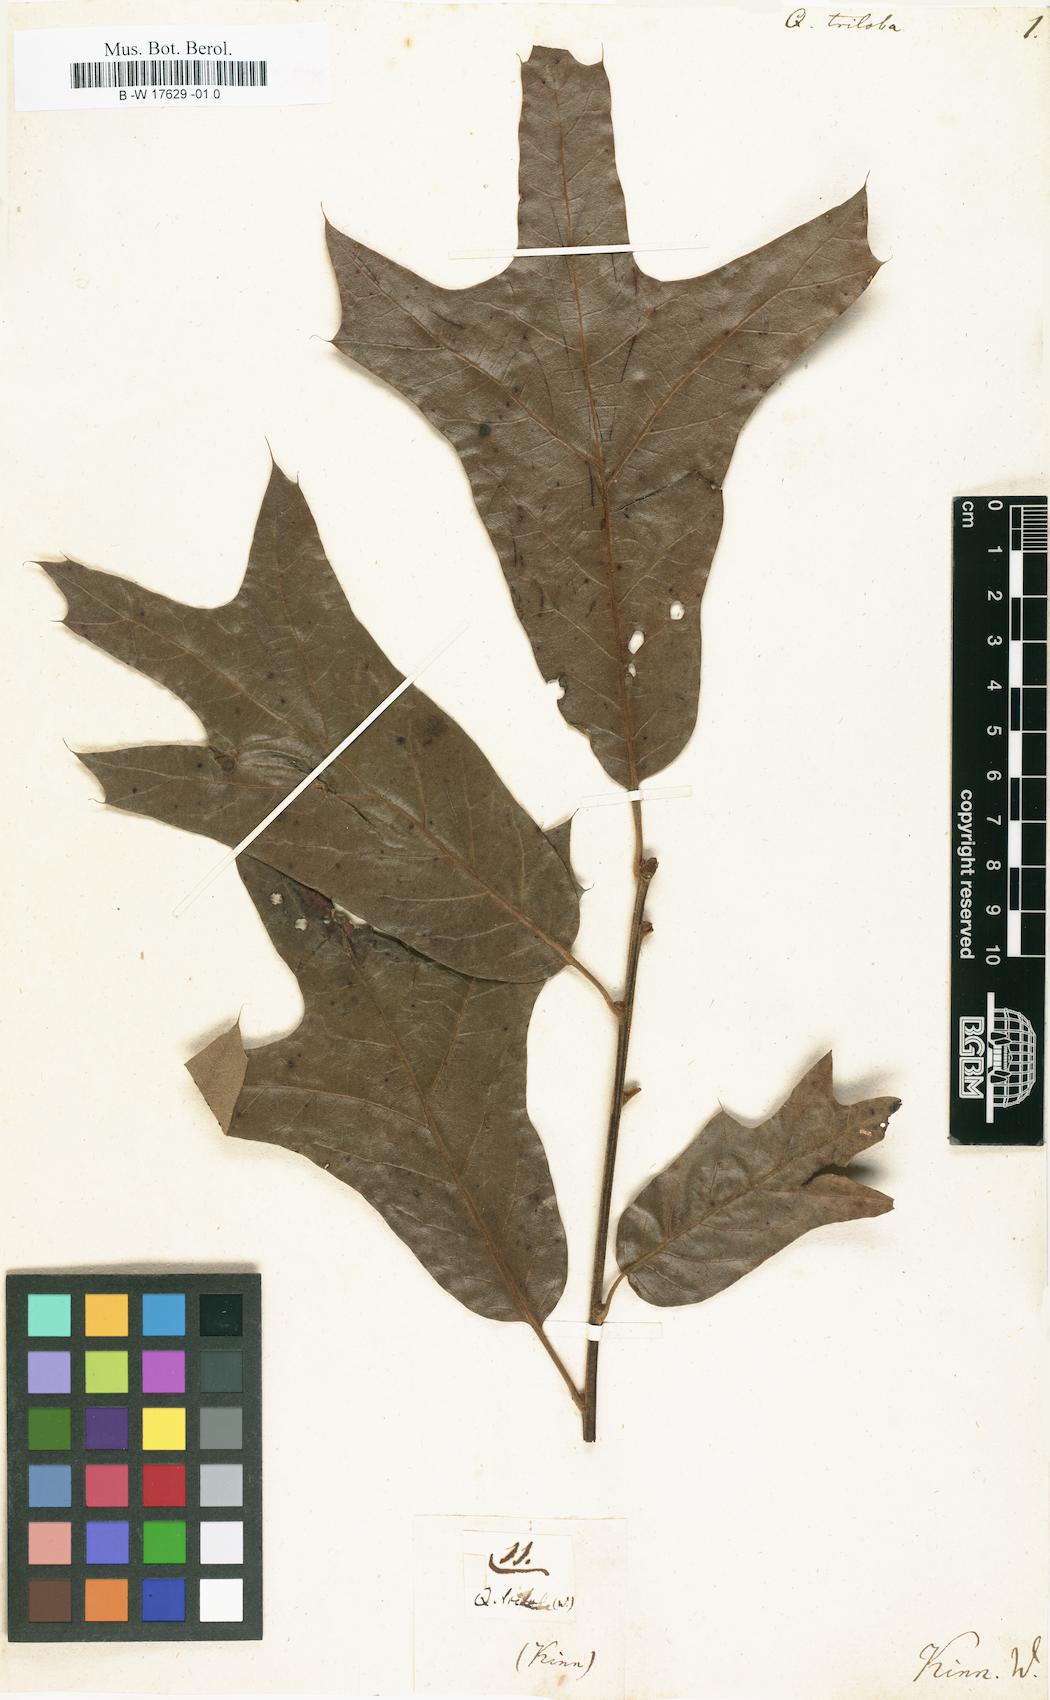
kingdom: Plantae
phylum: Tracheophyta
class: Magnoliopsida
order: Fagales
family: Fagaceae
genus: Quercus
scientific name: Quercus falcata
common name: Southern red oak
